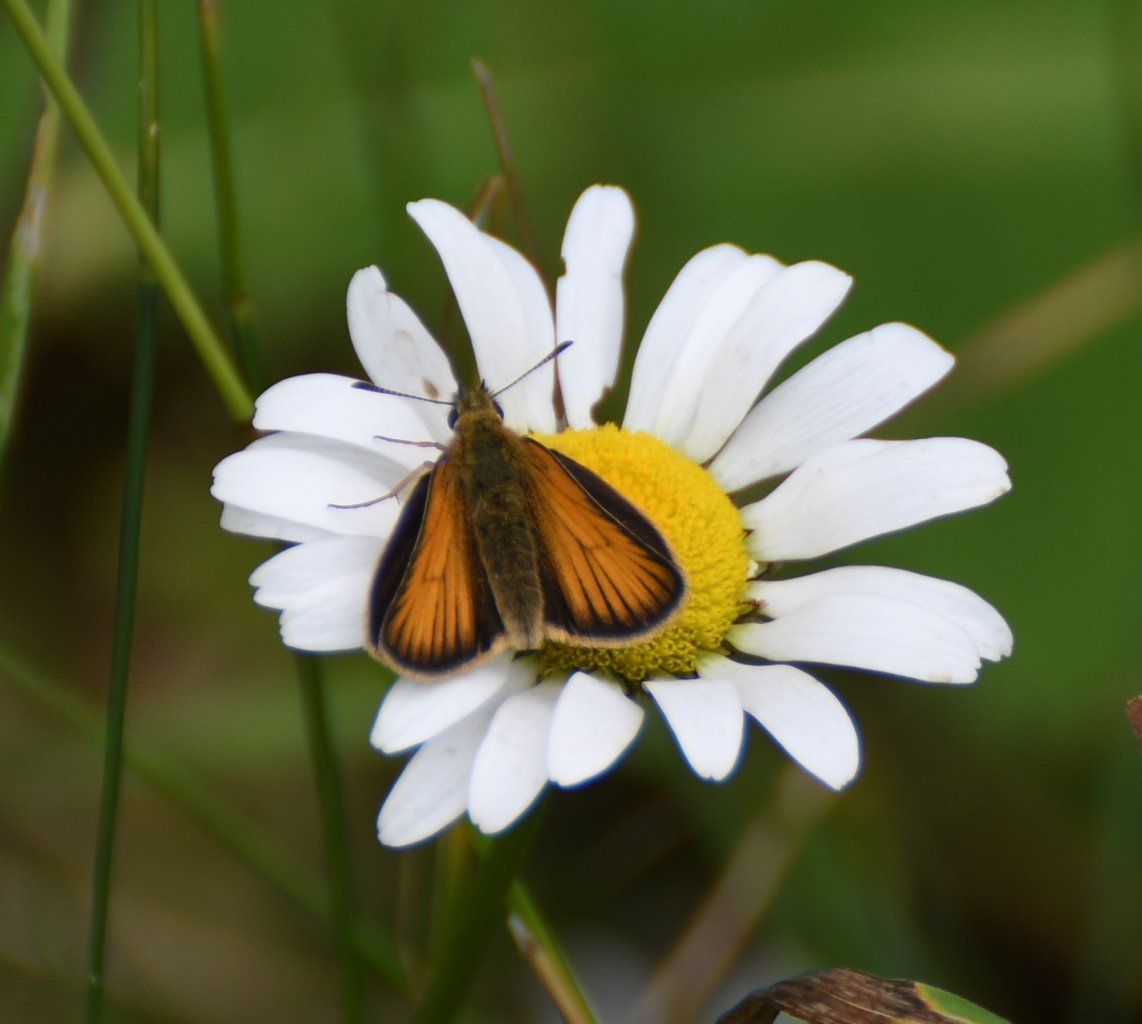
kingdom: Animalia
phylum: Arthropoda
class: Insecta
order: Lepidoptera
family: Hesperiidae
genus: Thymelicus
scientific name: Thymelicus lineola
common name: European Skipper
